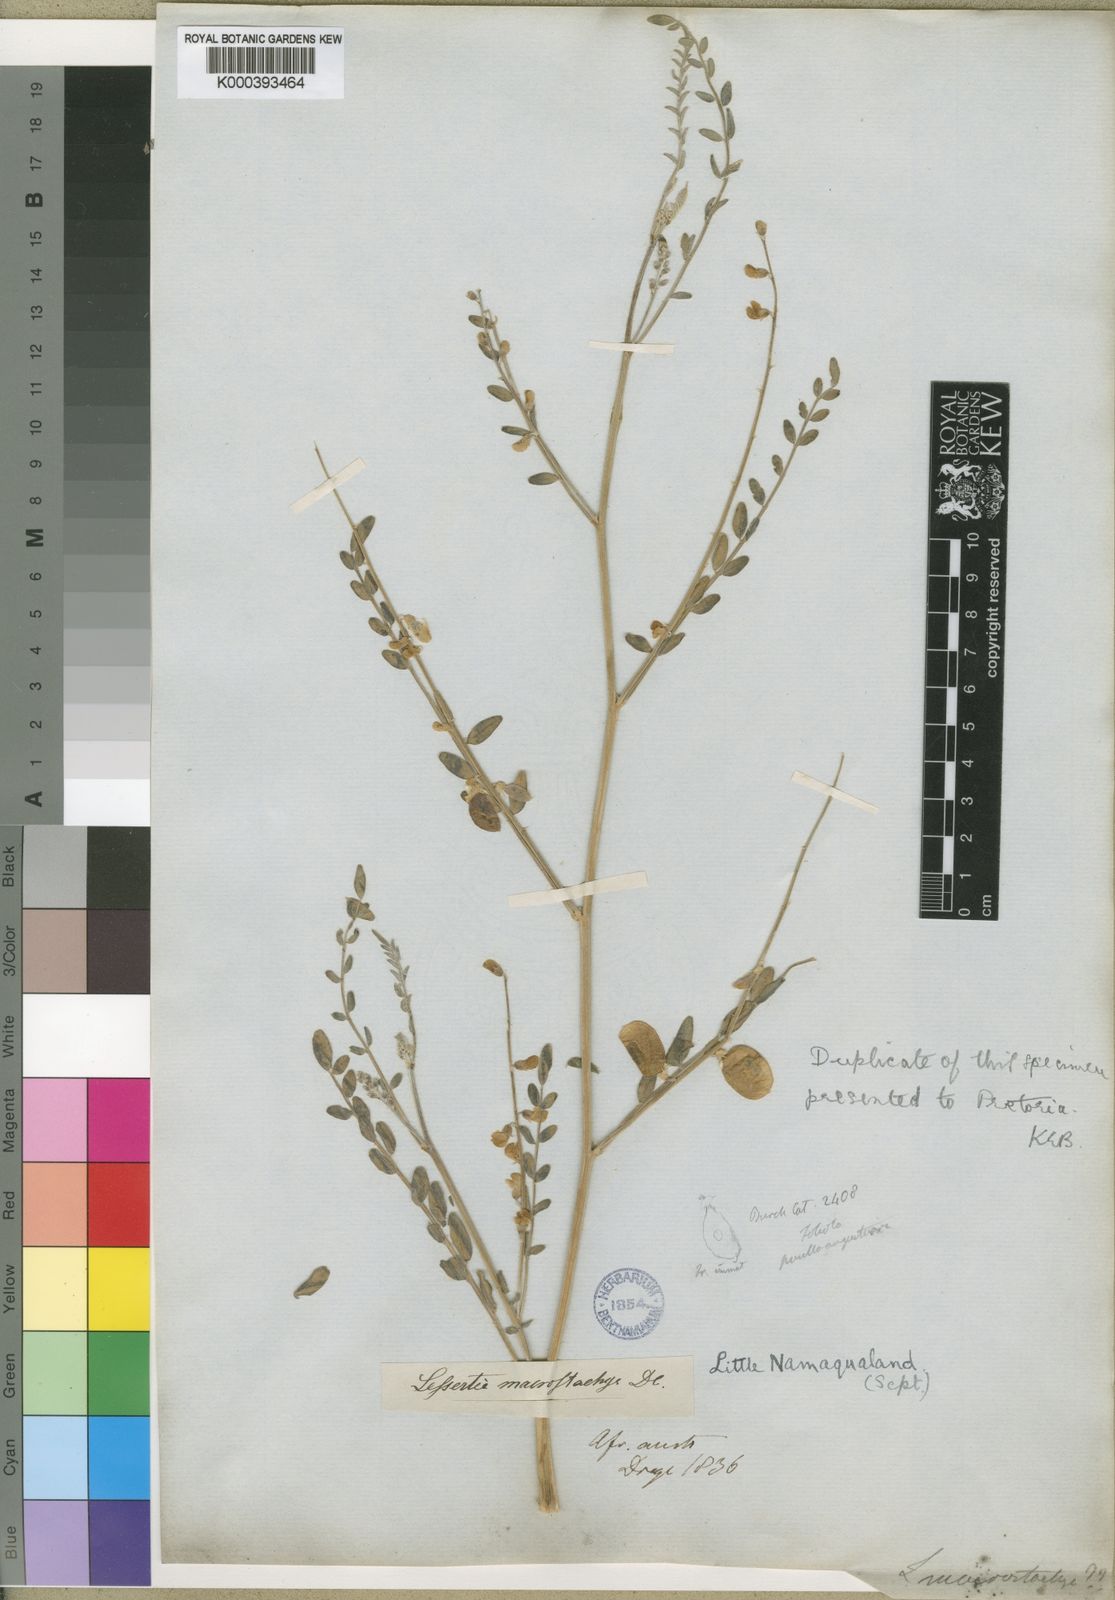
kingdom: Plantae
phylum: Tracheophyta
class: Magnoliopsida
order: Fabales
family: Fabaceae
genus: Lessertia
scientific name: Lessertia macrostachya
